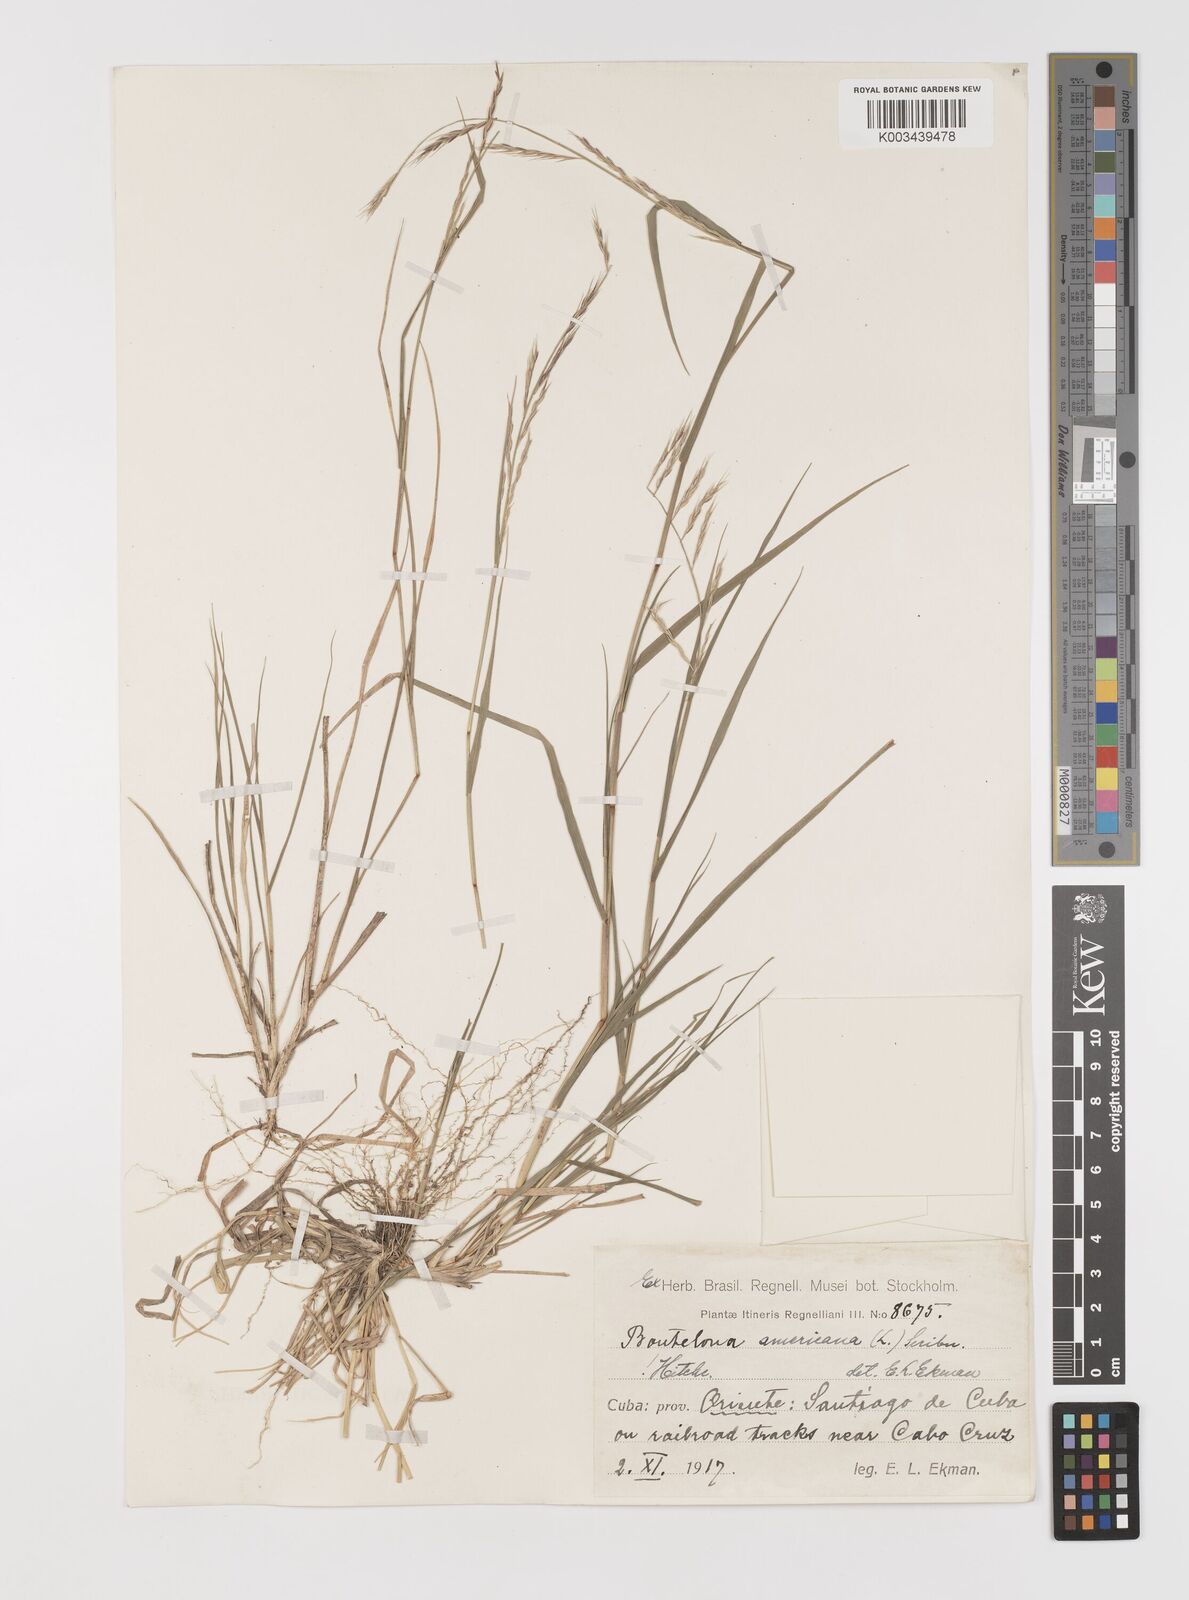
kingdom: Plantae
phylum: Tracheophyta
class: Liliopsida
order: Poales
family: Poaceae
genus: Bouteloua
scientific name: Bouteloua americana
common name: Mule grass
